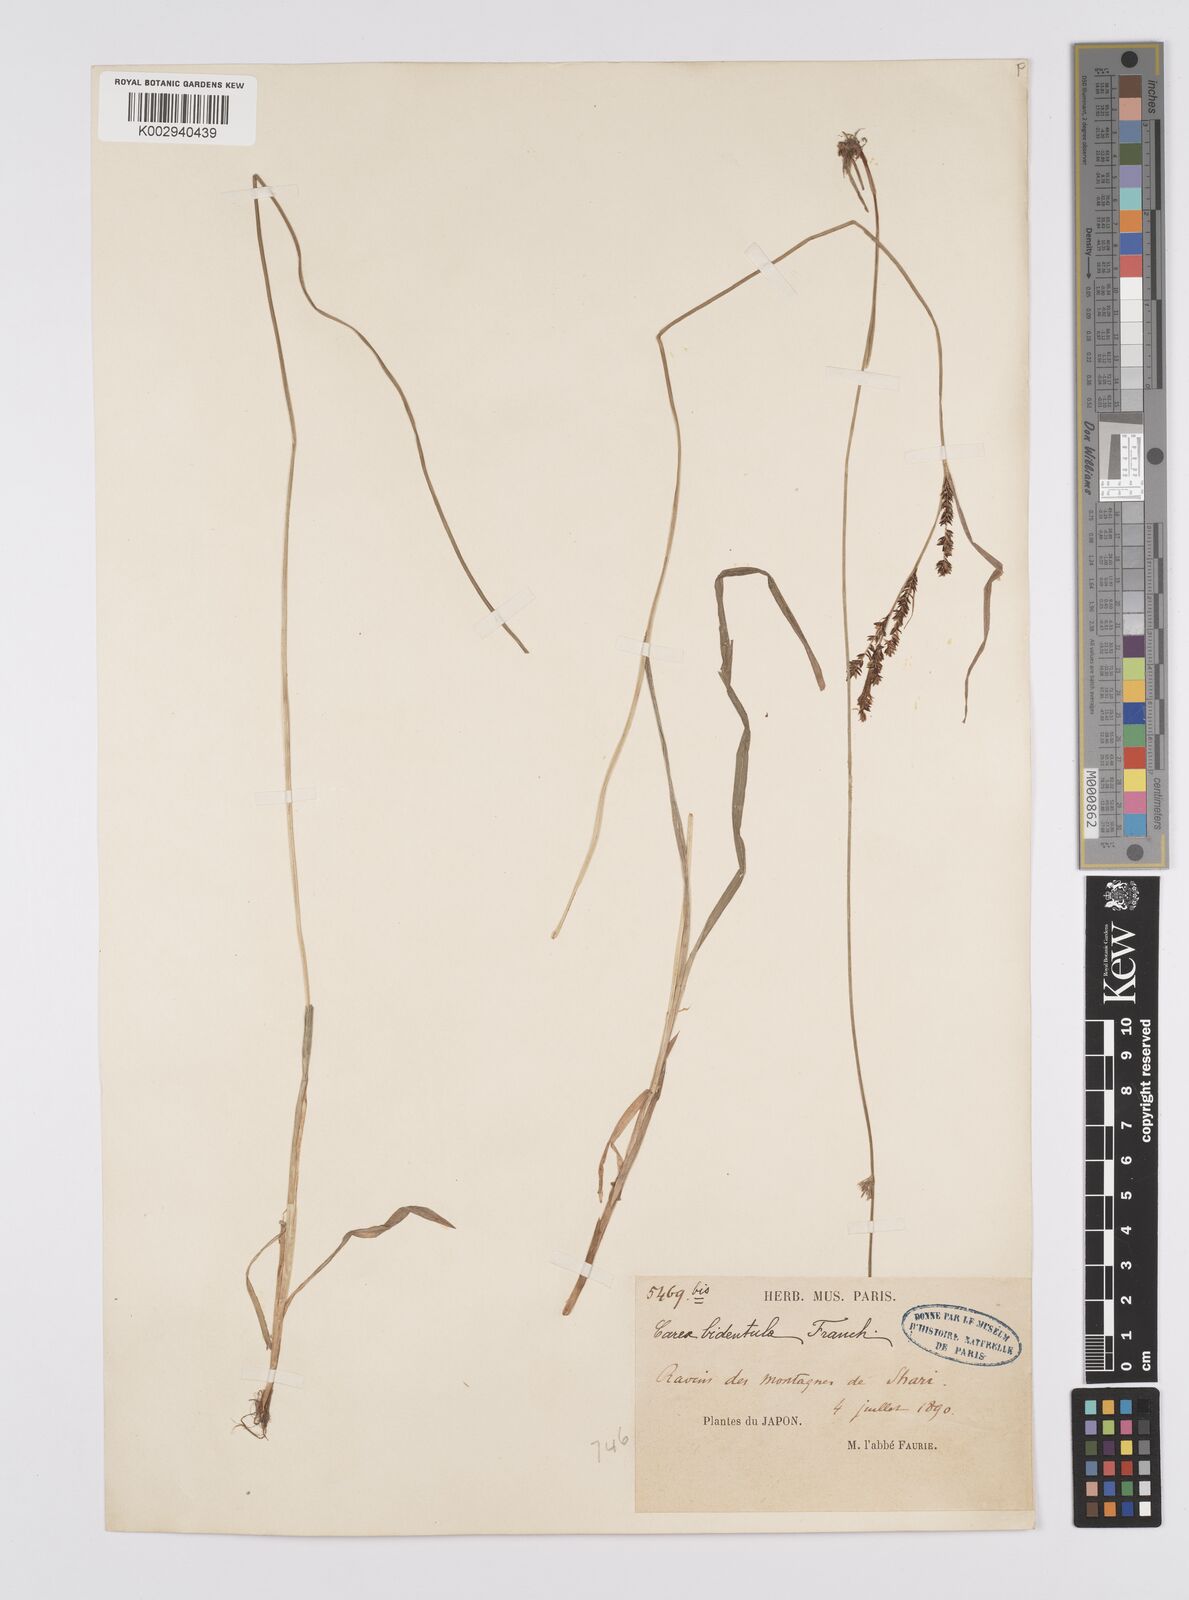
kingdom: Plantae
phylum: Tracheophyta
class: Liliopsida
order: Poales
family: Cyperaceae
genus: Carex
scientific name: Carex augustinowiczii
